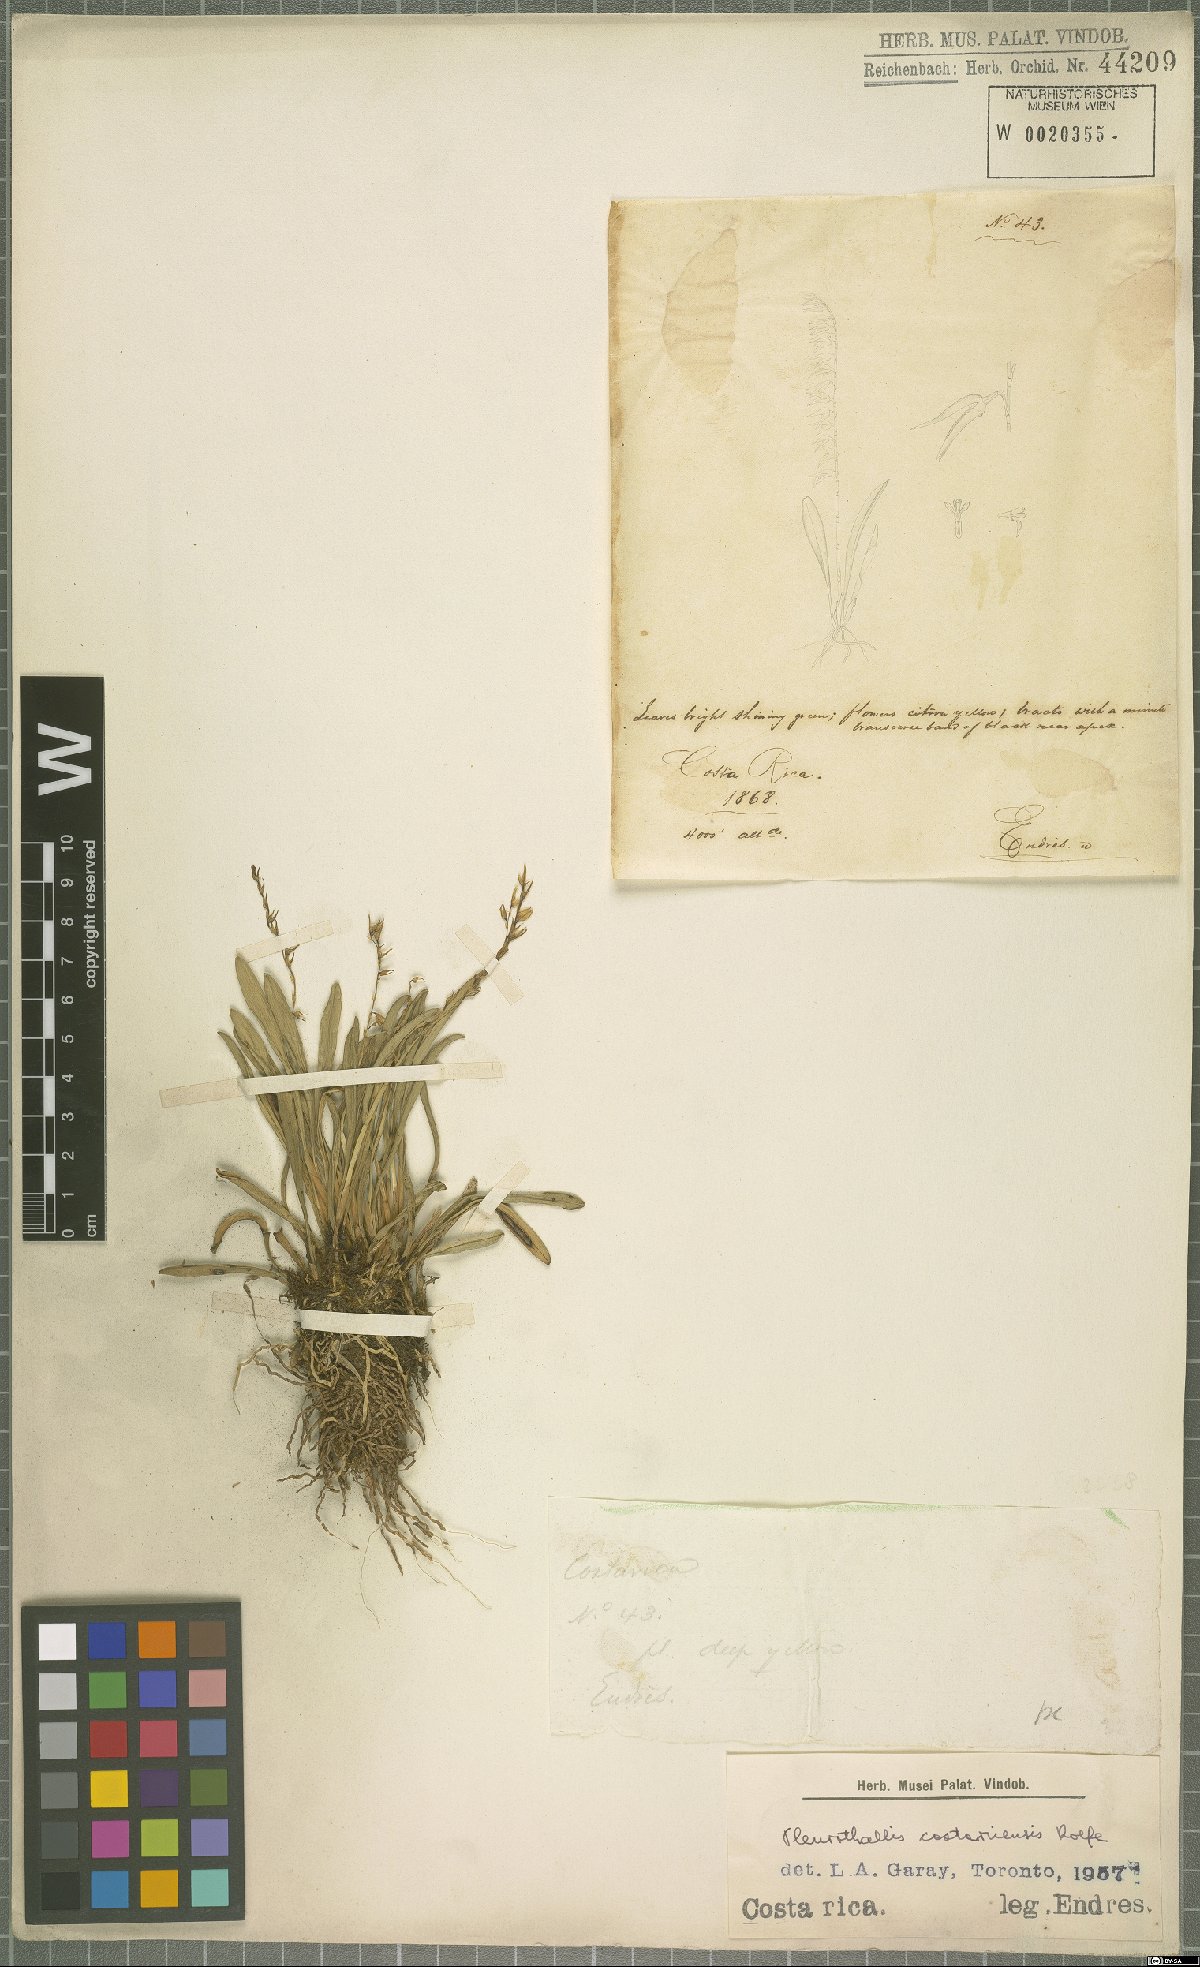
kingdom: Plantae
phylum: Tracheophyta
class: Liliopsida
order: Asparagales
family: Orchidaceae
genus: Specklinia
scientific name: Specklinia costaricensis
